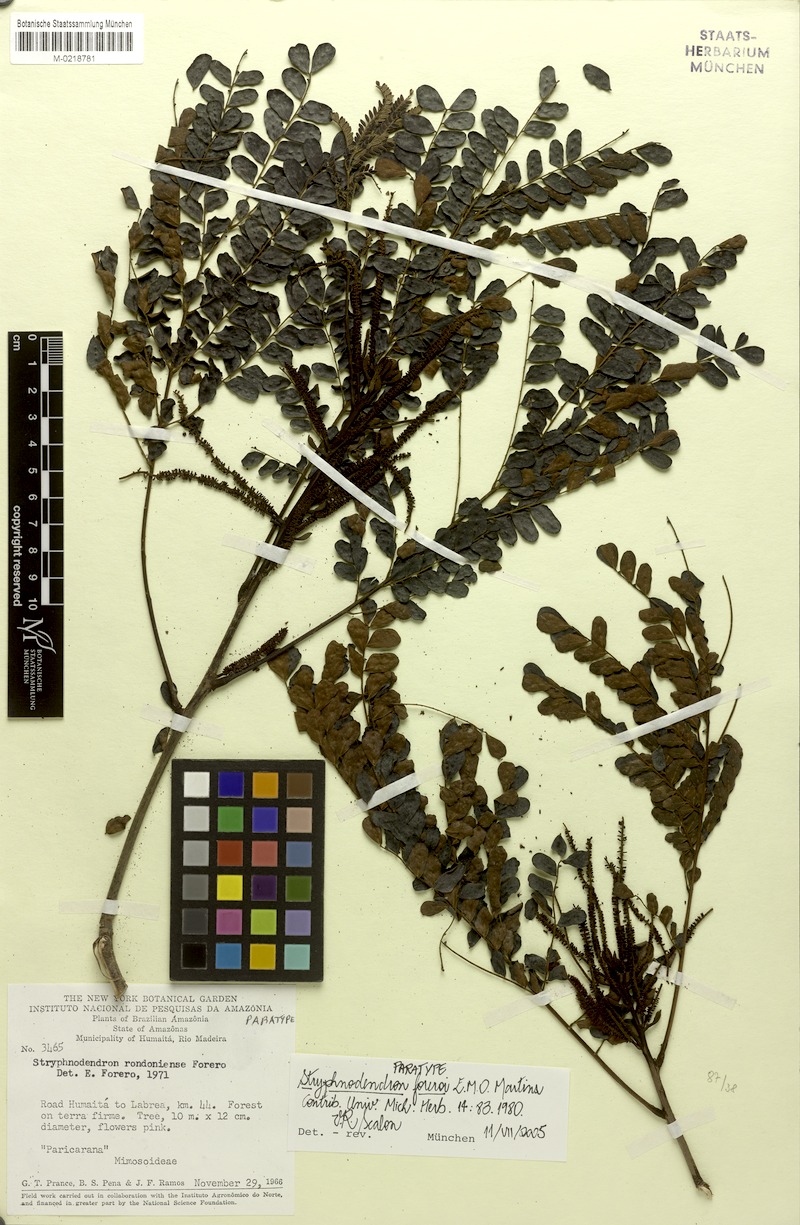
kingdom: Plantae
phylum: Tracheophyta
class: Magnoliopsida
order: Fabales
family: Fabaceae
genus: Stryphnodendron
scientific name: Stryphnodendron foreroi
